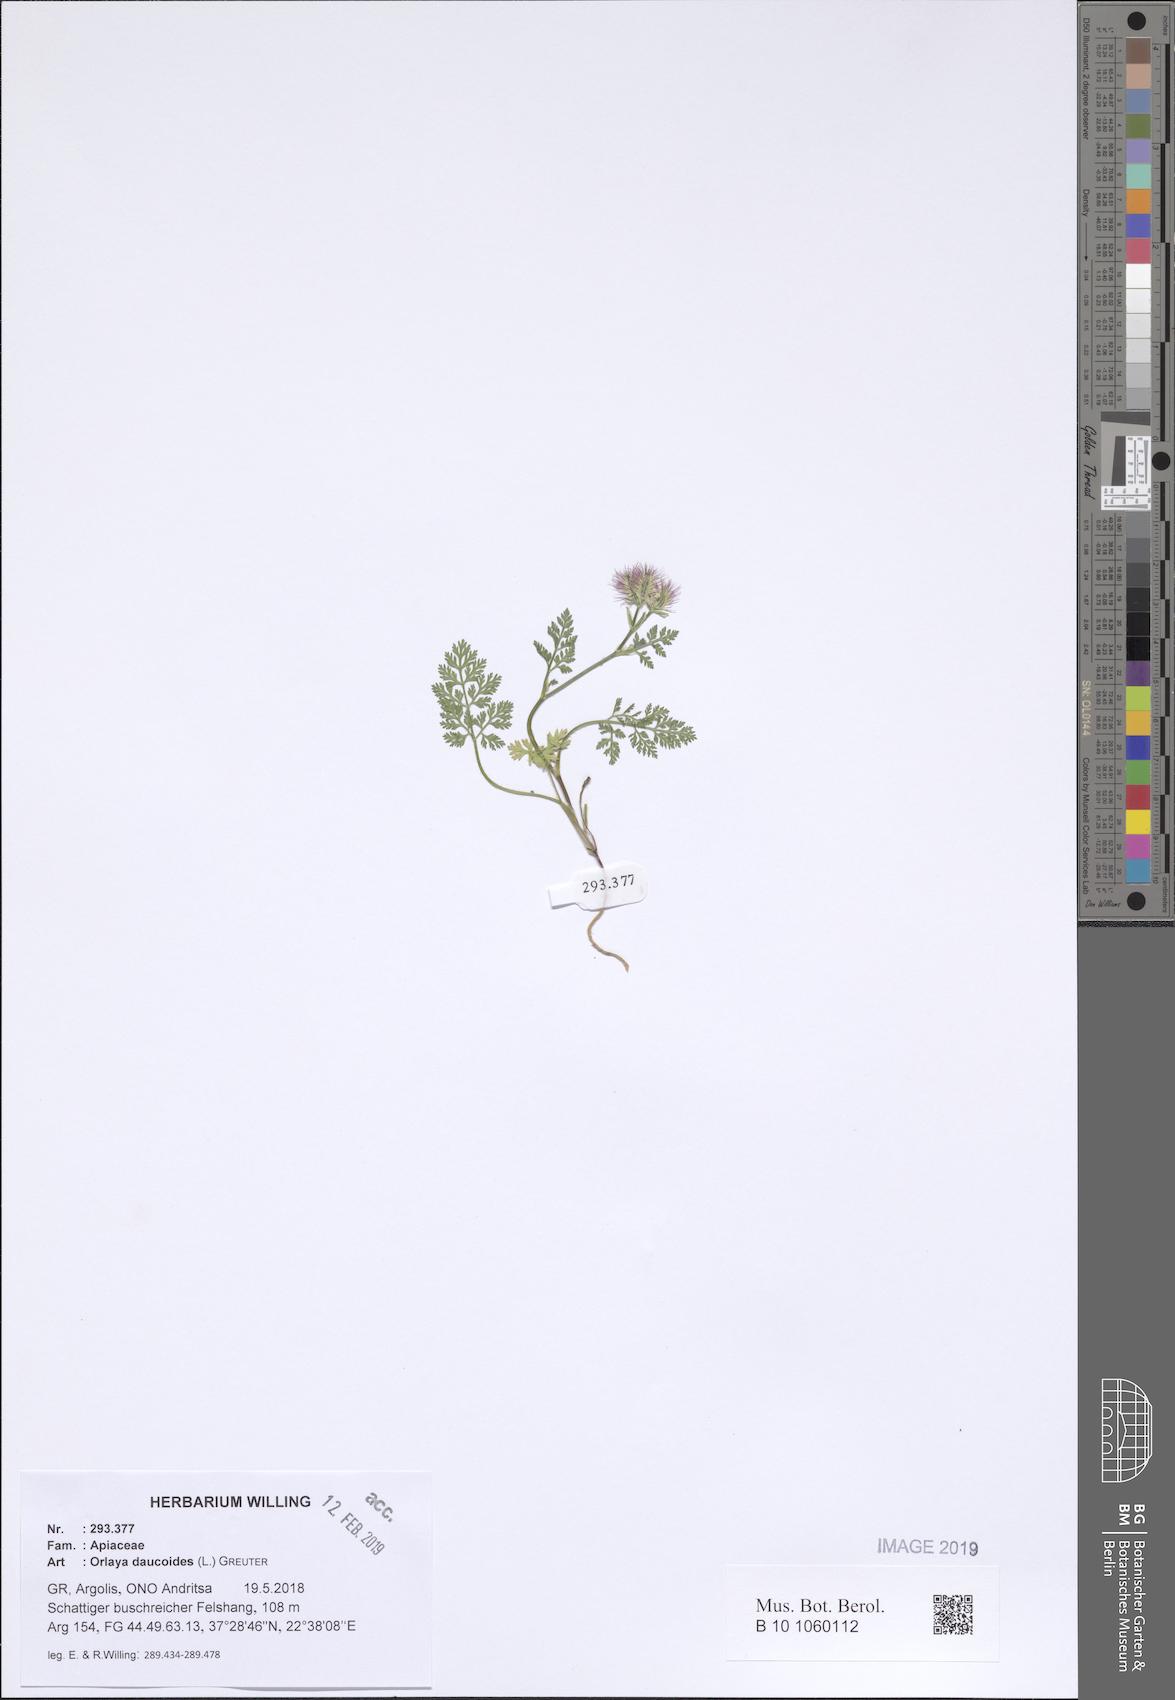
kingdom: Plantae
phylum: Tracheophyta
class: Magnoliopsida
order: Apiales
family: Apiaceae
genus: Orlaya
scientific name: Orlaya daucoides
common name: Flat-fruit orlaya
